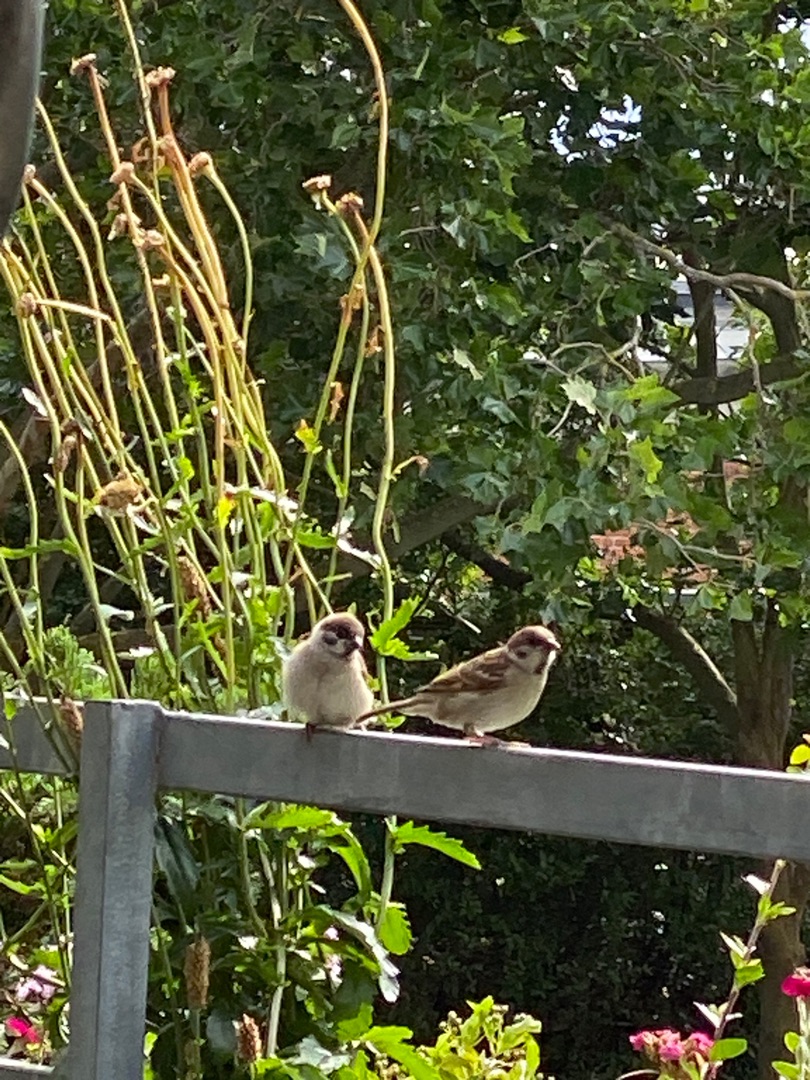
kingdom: Animalia
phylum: Chordata
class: Aves
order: Passeriformes
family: Passeridae
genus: Passer
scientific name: Passer montanus
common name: Skovspurv
